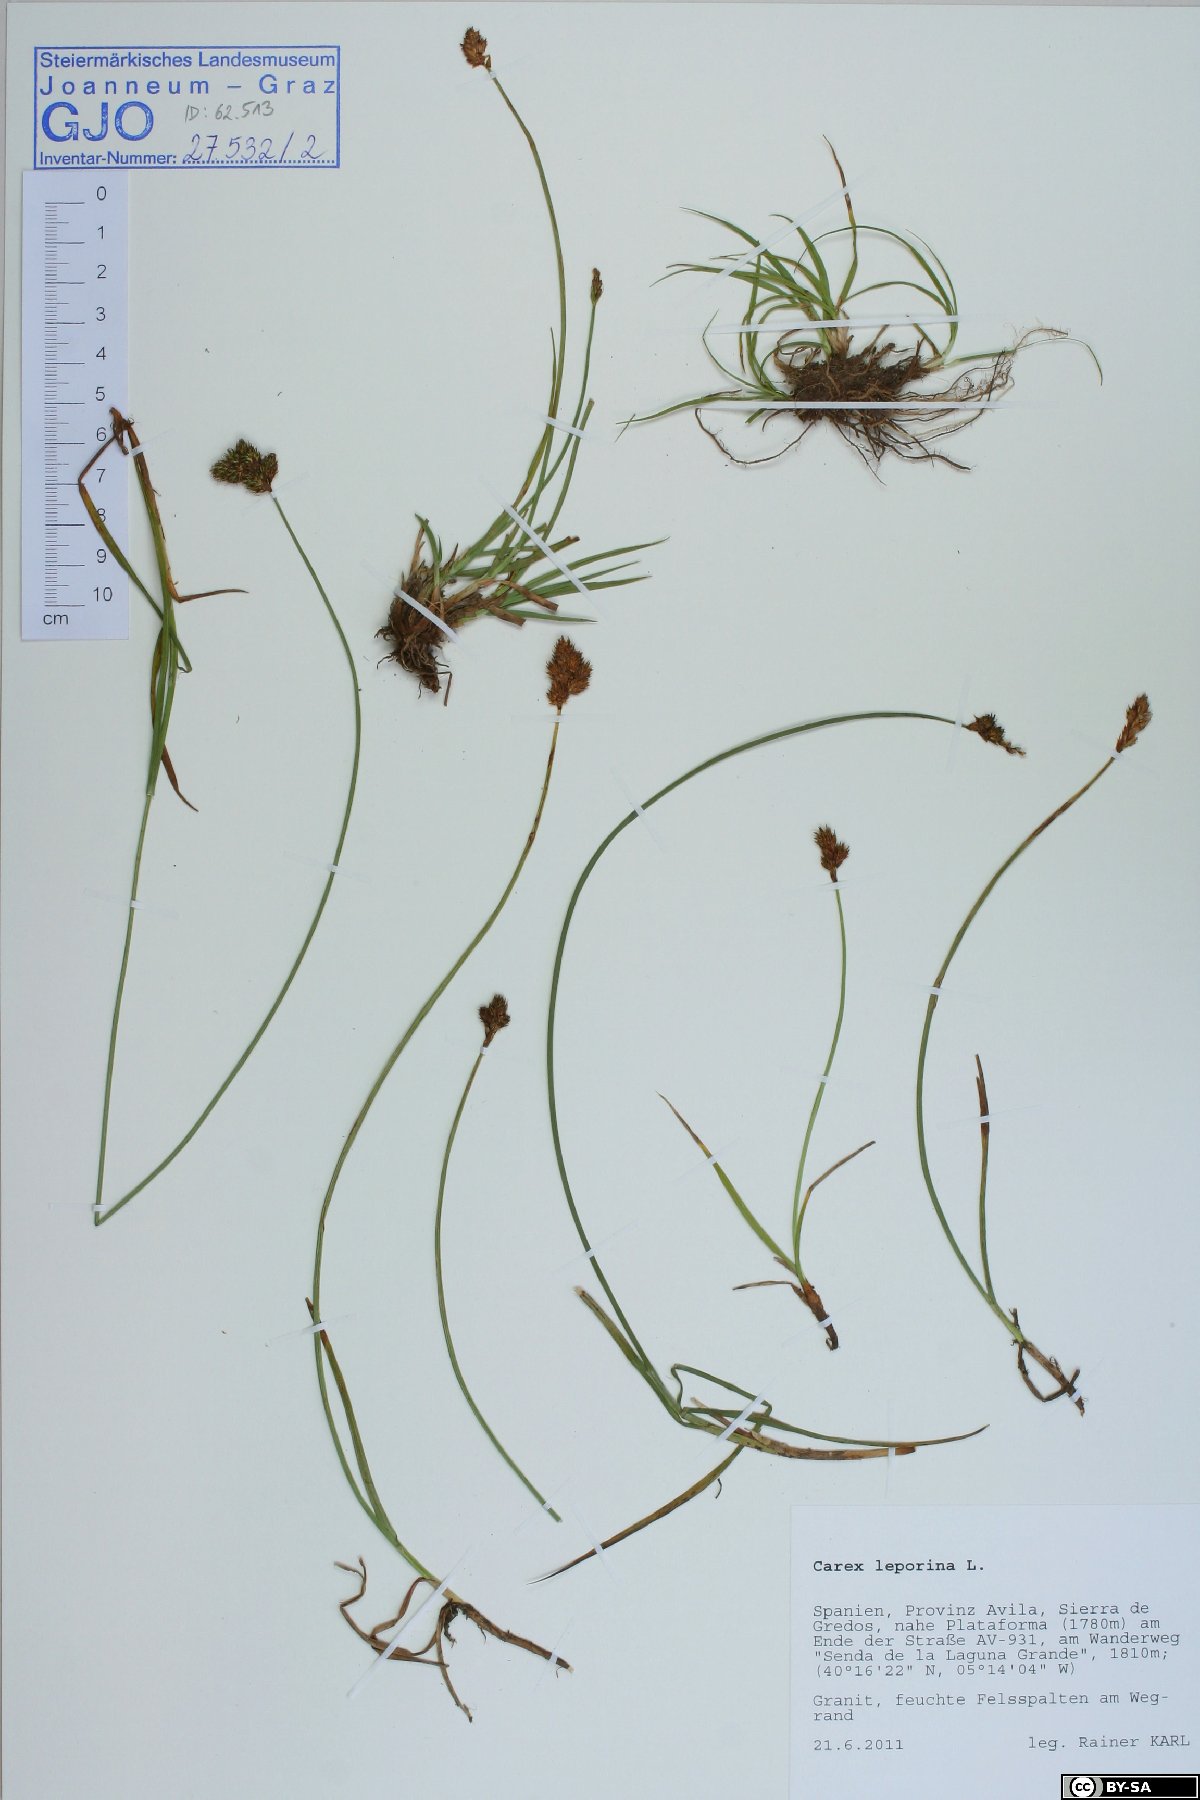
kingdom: Plantae
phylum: Tracheophyta
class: Liliopsida
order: Poales
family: Cyperaceae
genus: Carex
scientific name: Carex leporina
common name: Oval sedge
